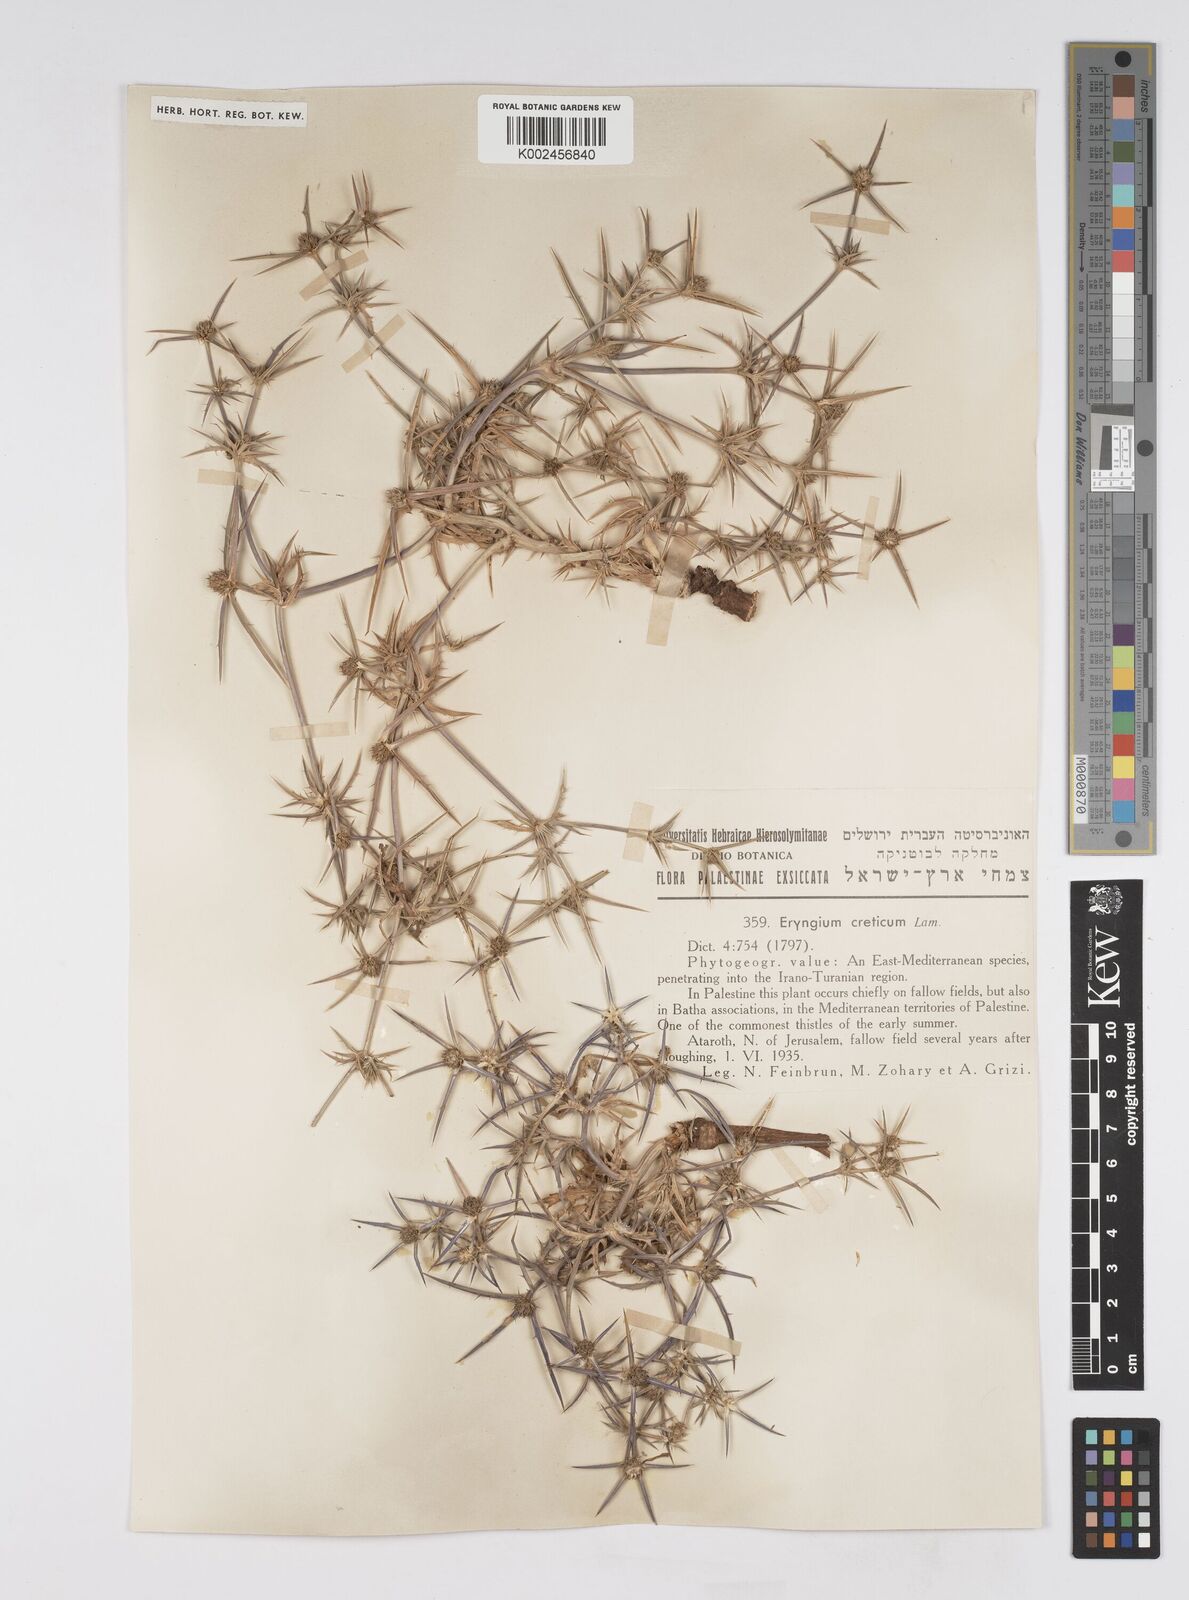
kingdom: Plantae
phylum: Tracheophyta
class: Magnoliopsida
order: Apiales
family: Apiaceae
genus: Eryngium
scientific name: Eryngium creticum
